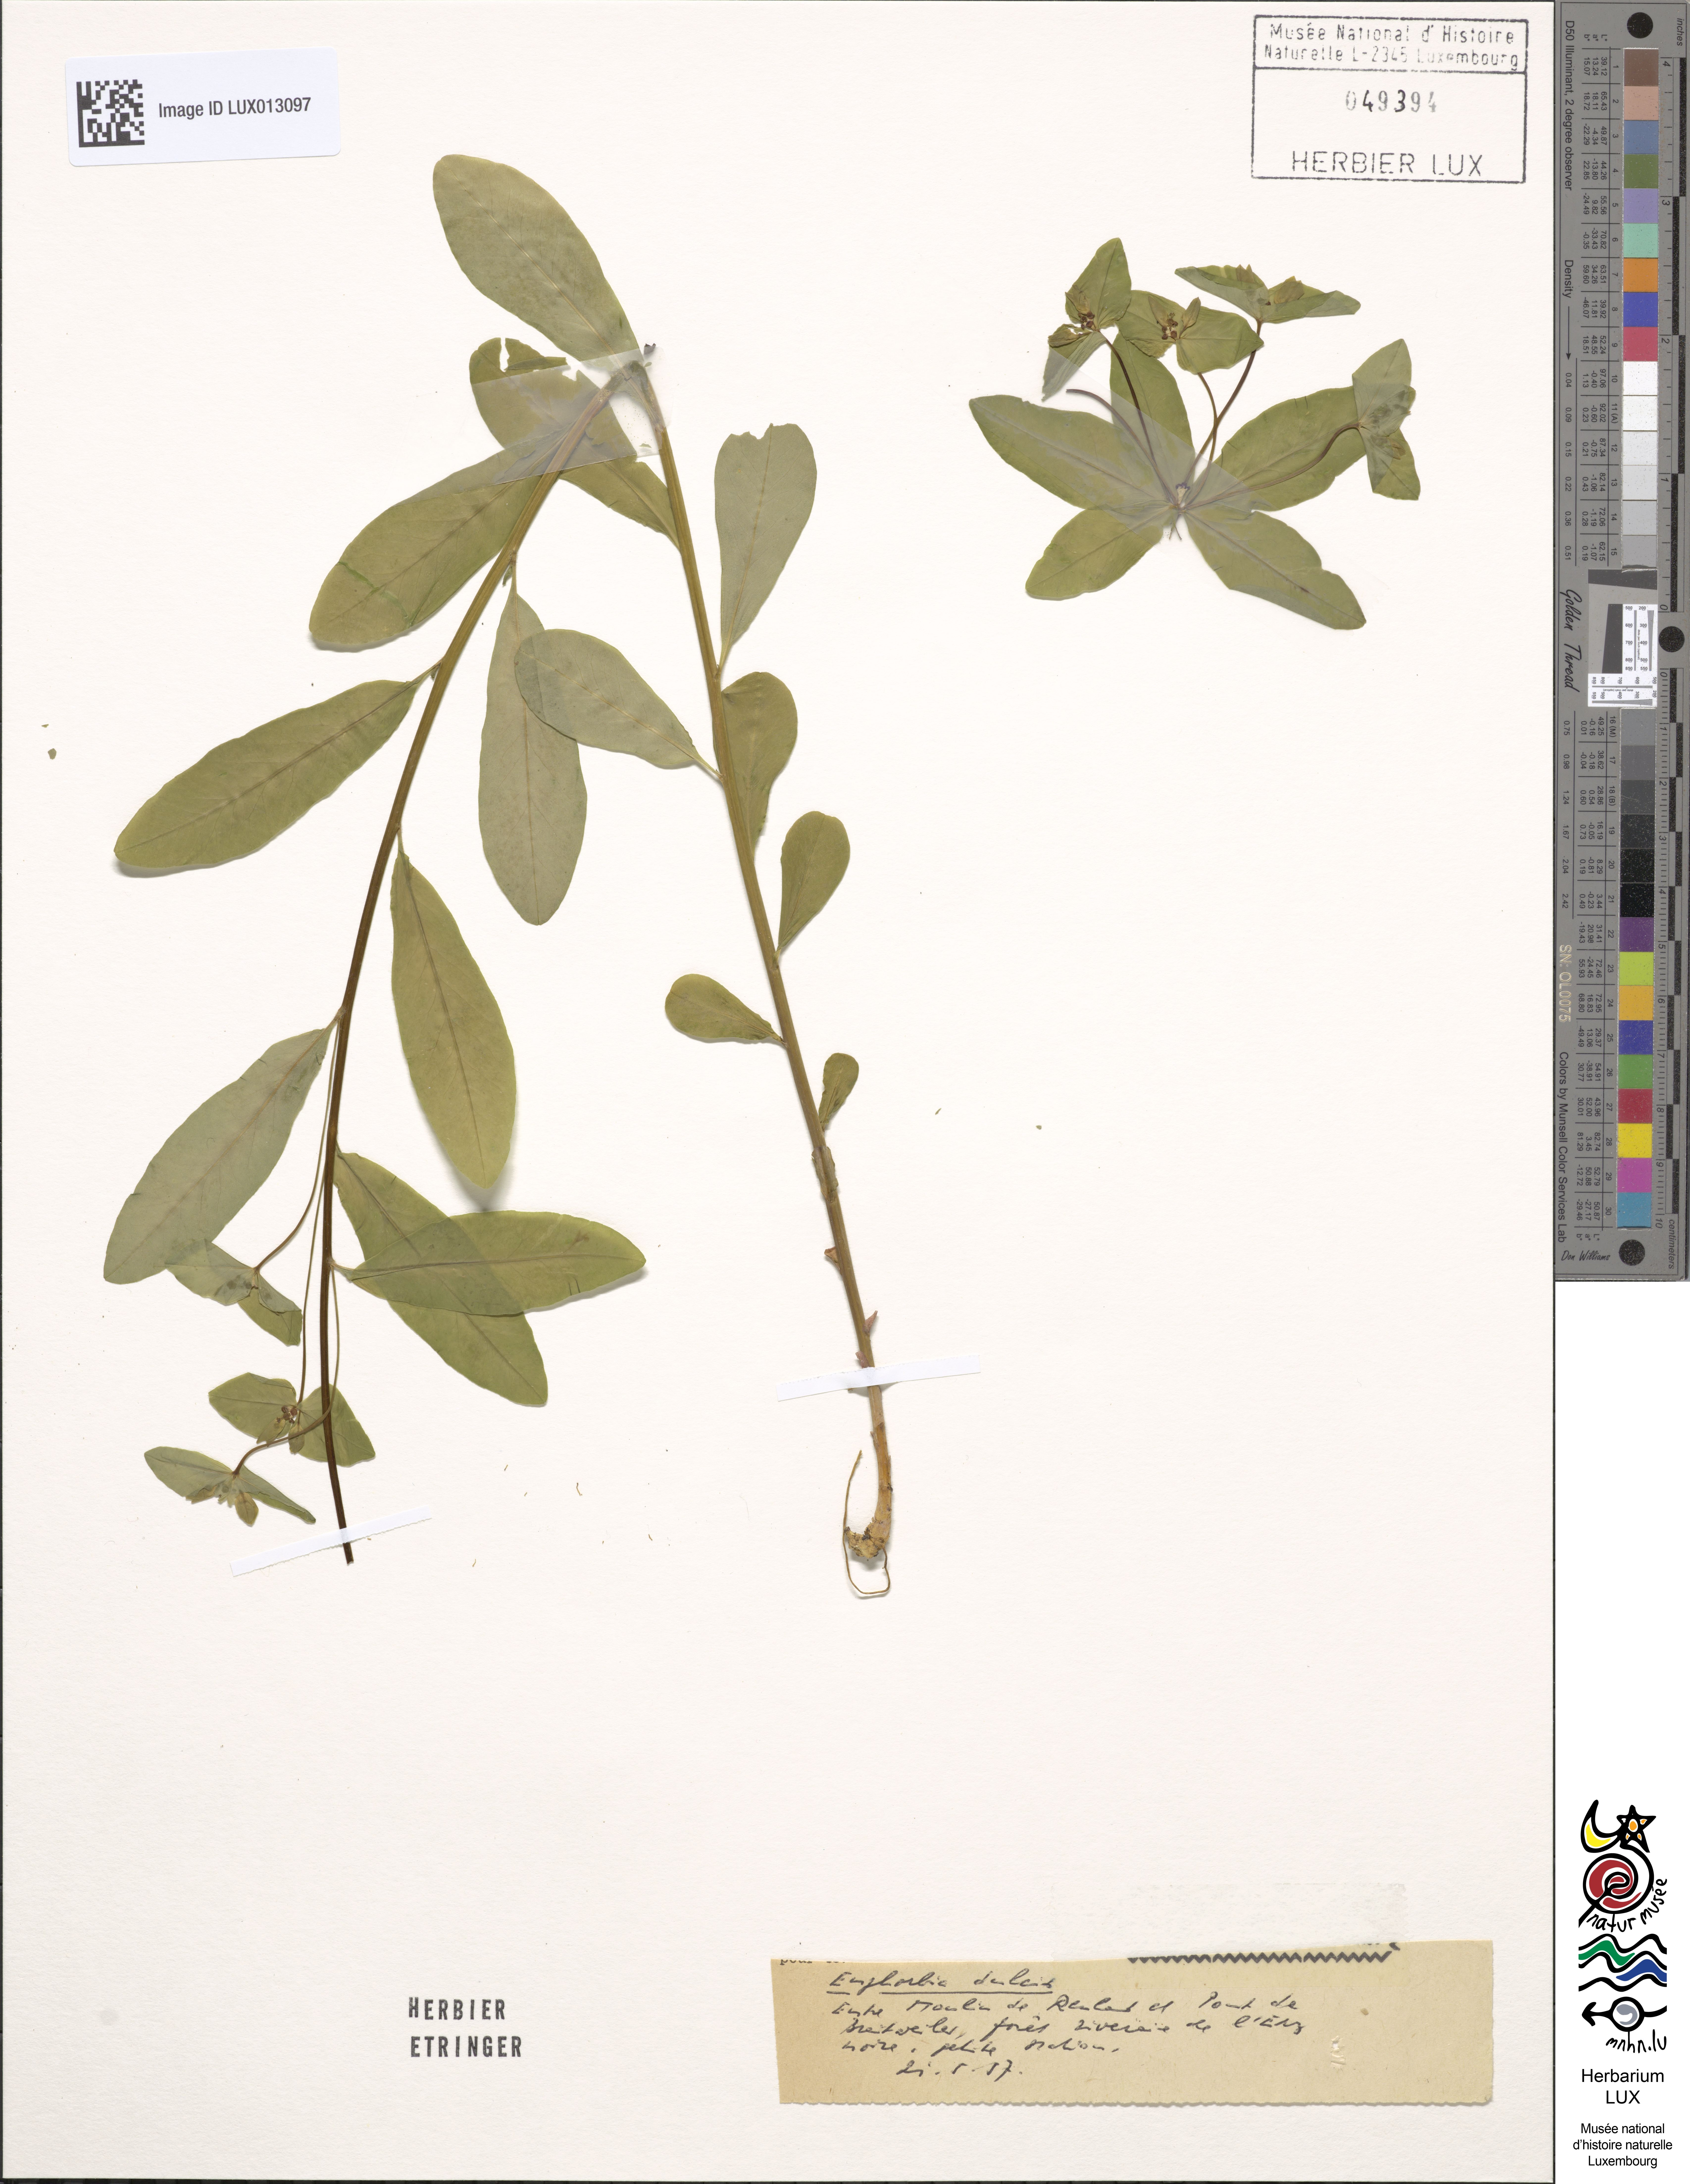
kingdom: Plantae
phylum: Tracheophyta
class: Magnoliopsida
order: Malpighiales
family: Euphorbiaceae
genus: Euphorbia
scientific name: Euphorbia dulcis
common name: Sweet spurge
